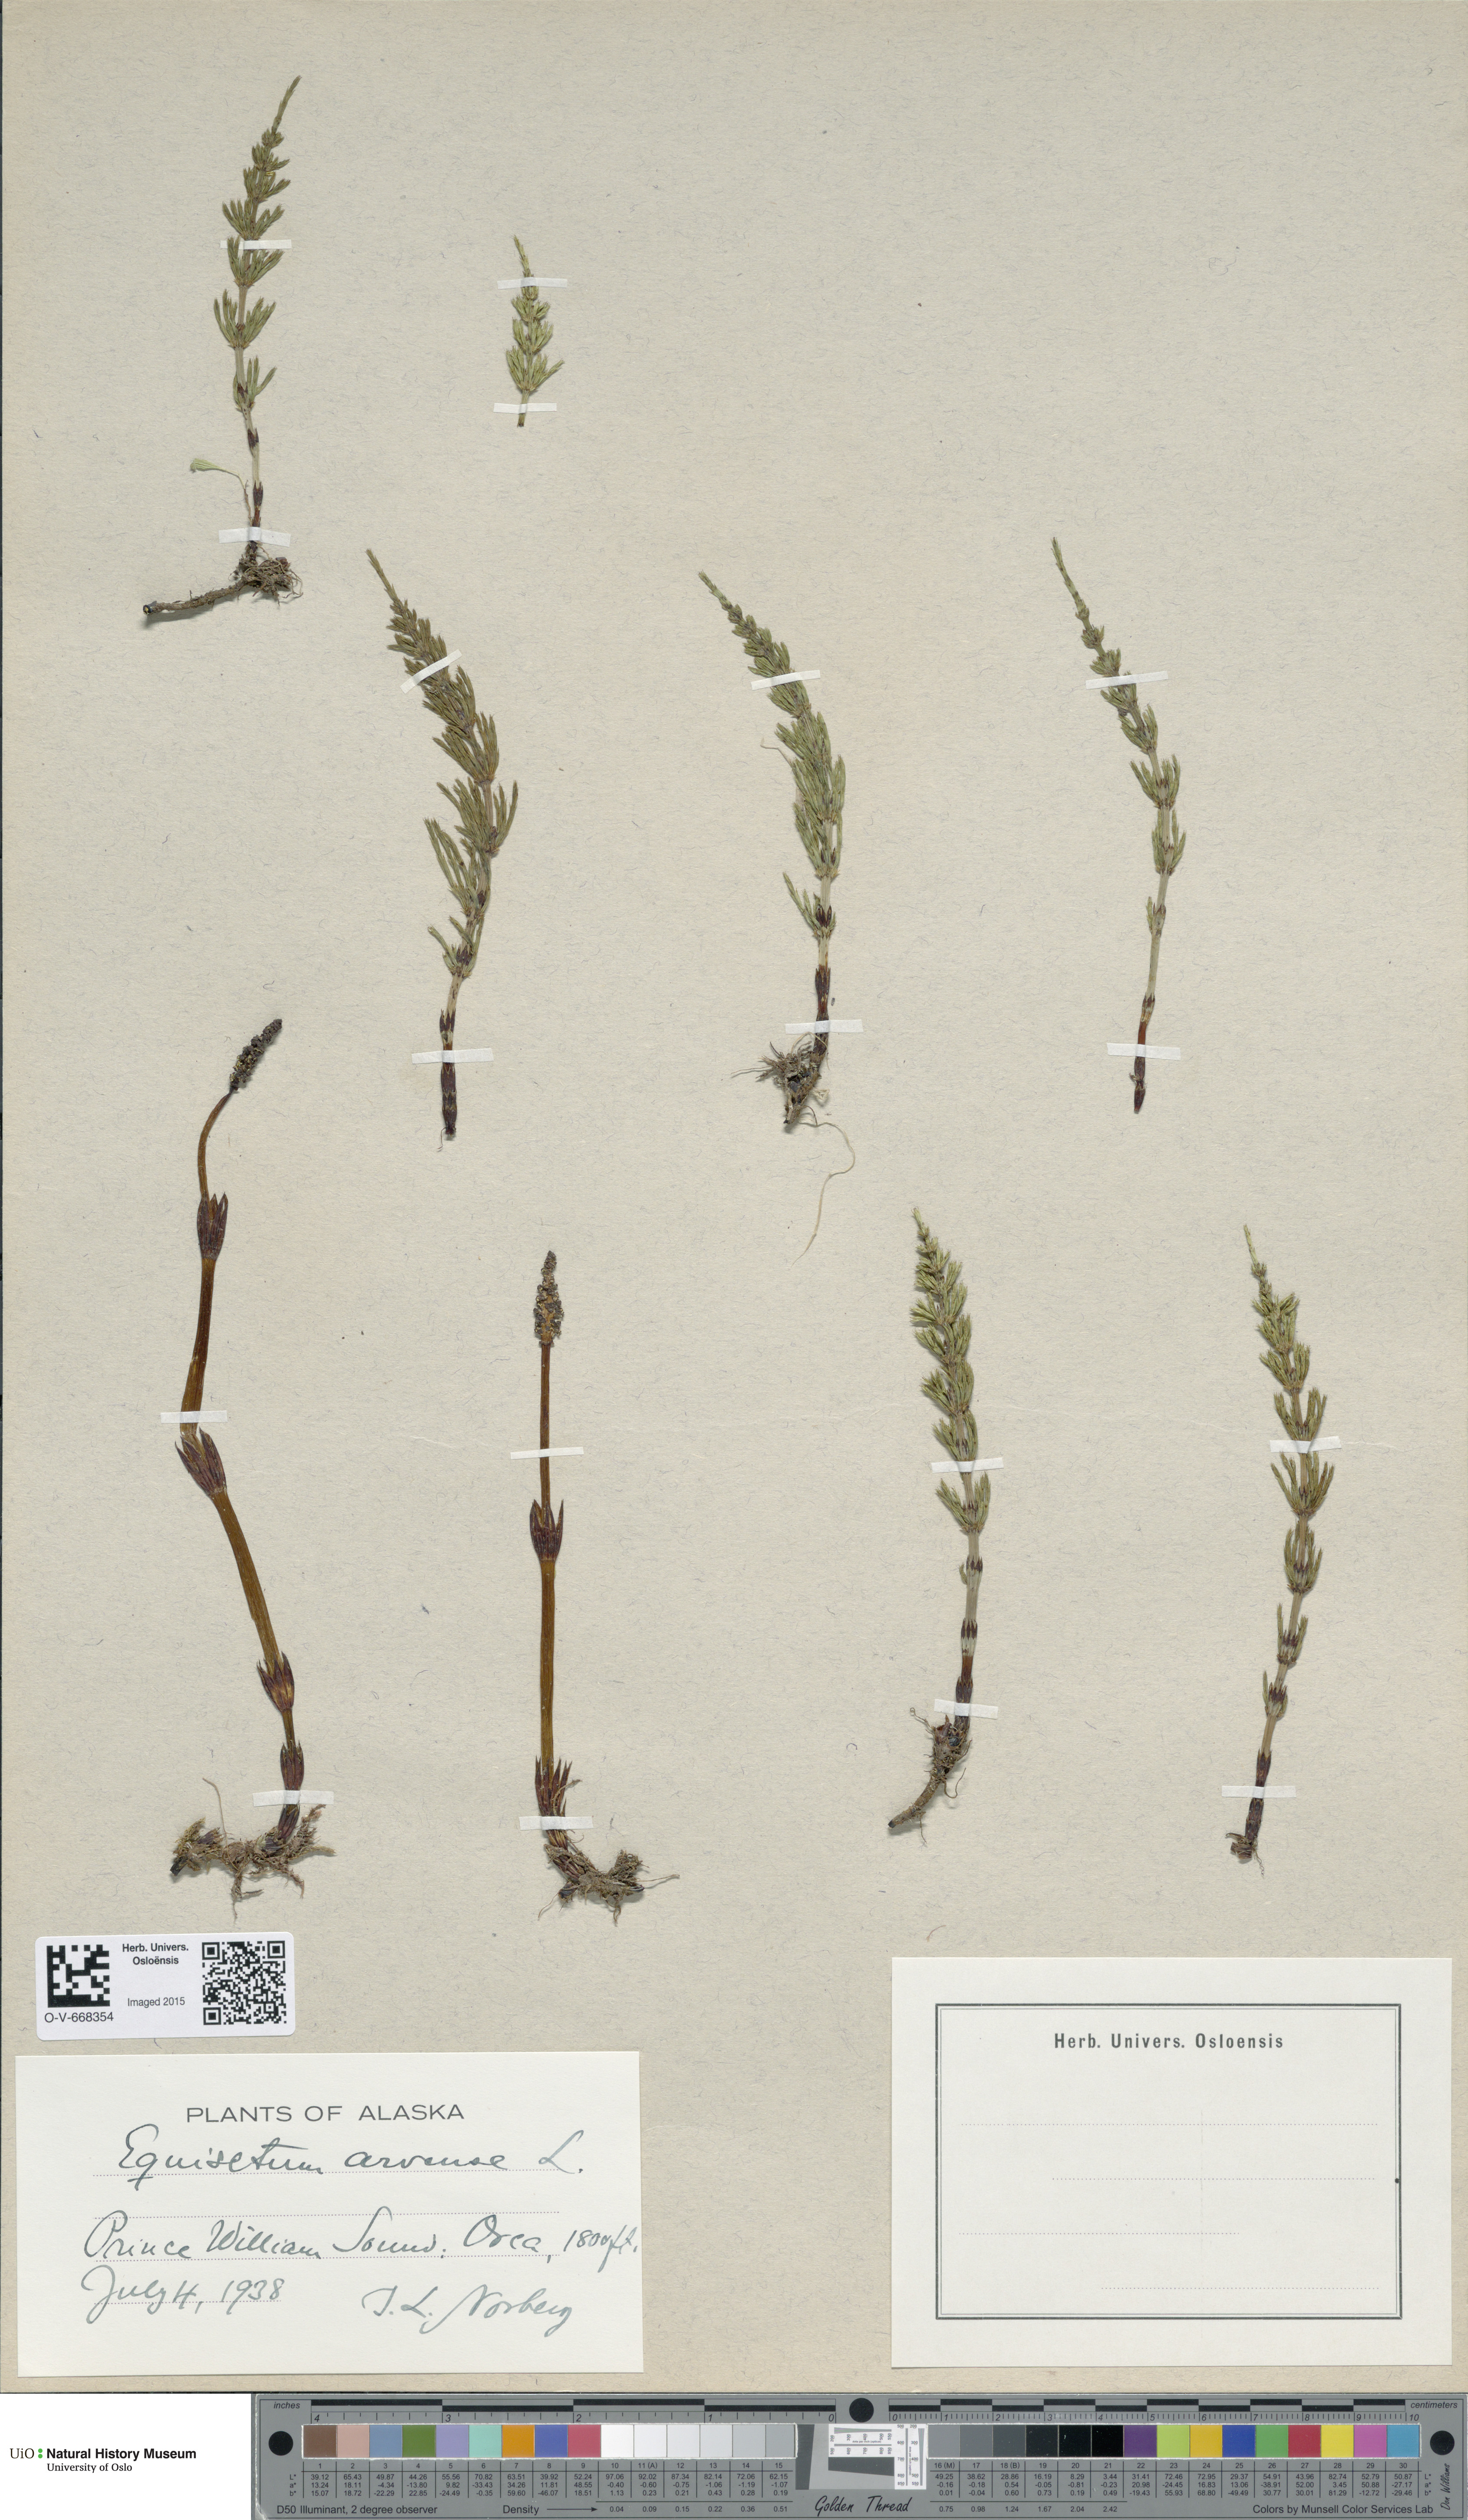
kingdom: Plantae
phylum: Tracheophyta
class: Polypodiopsida
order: Equisetales
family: Equisetaceae
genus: Equisetum
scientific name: Equisetum arvense
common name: Field horsetail
